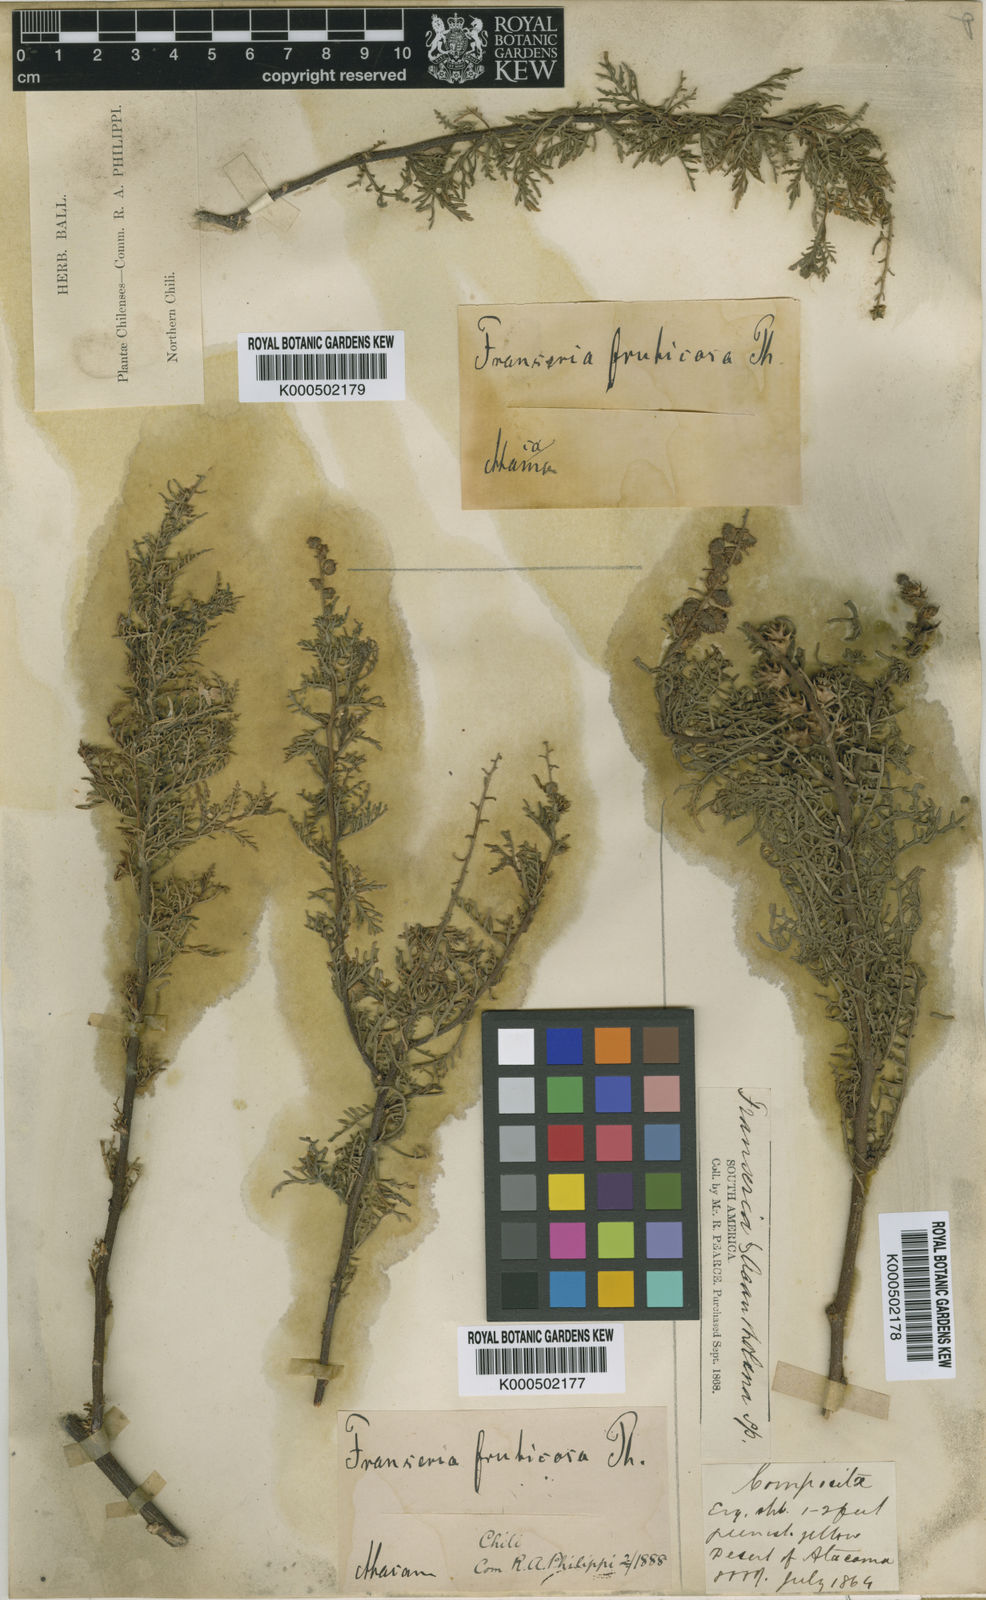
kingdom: Plantae
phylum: Tracheophyta
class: Magnoliopsida
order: Asterales
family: Asteraceae
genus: Ambrosia
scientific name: Ambrosia
